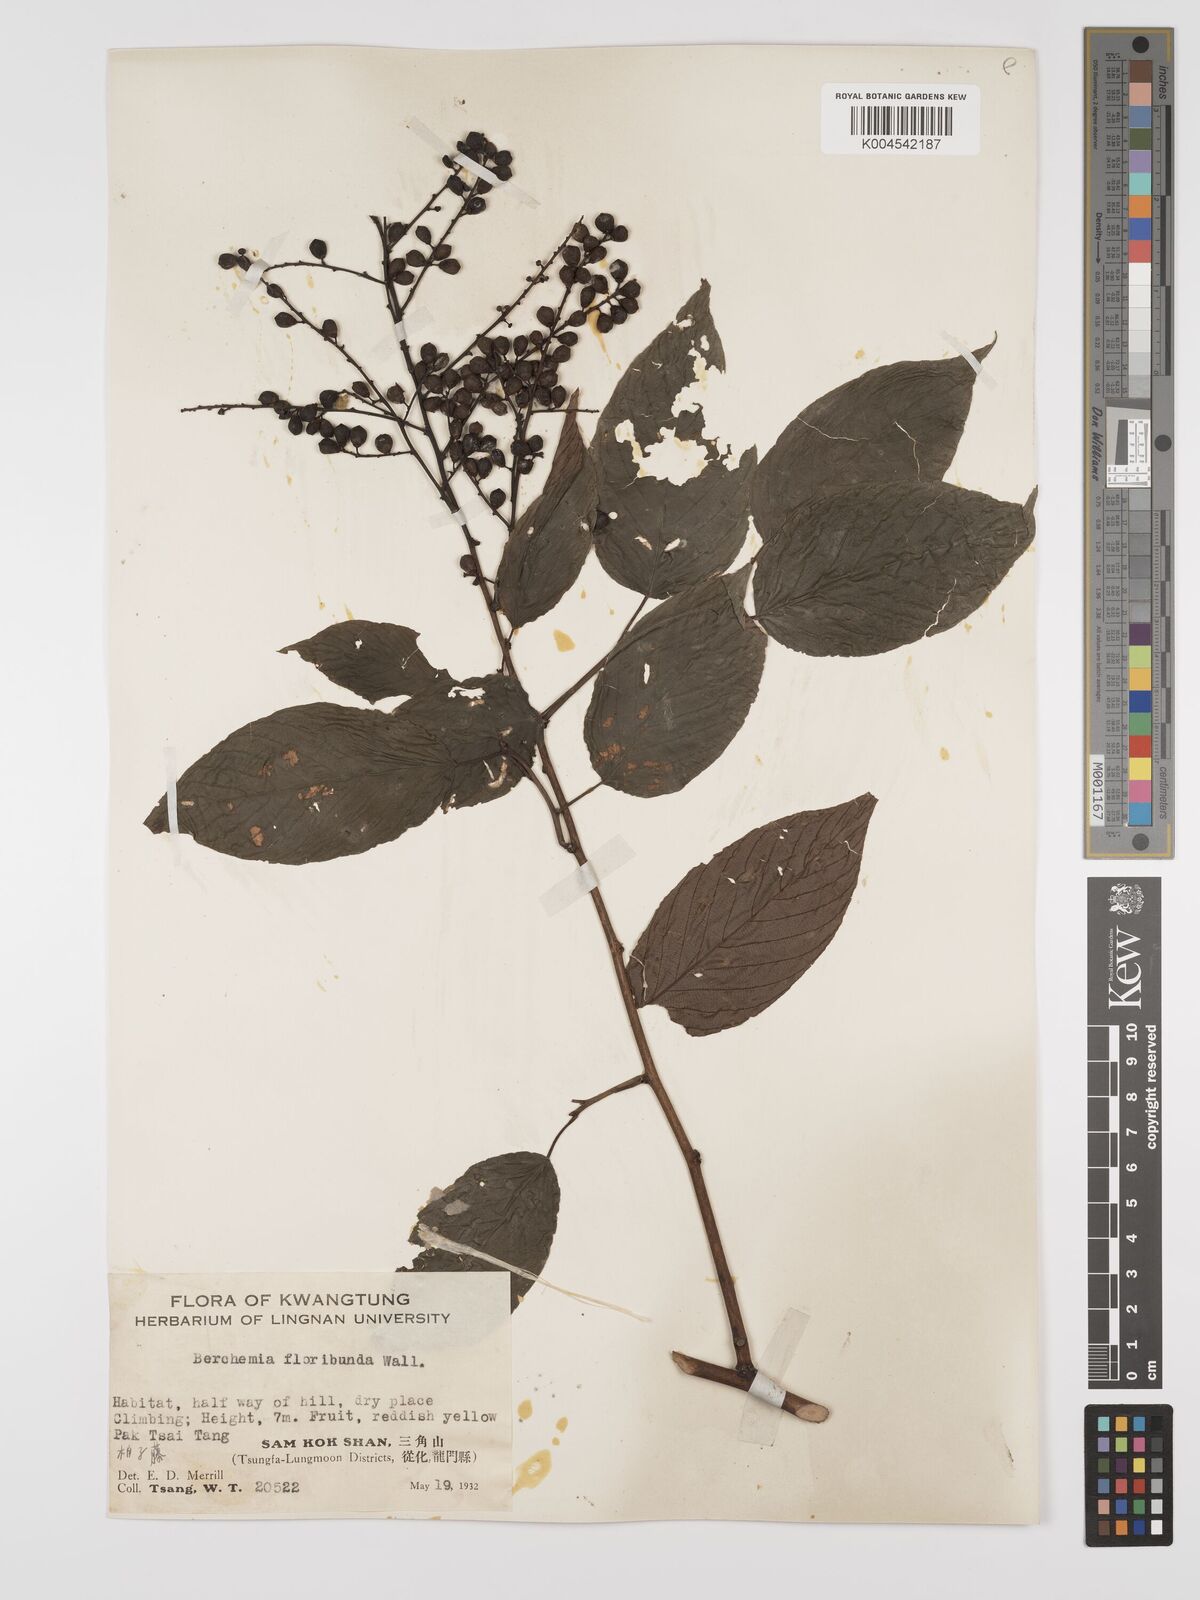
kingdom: Plantae
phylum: Tracheophyta
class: Magnoliopsida
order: Rosales
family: Rhamnaceae
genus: Berchemia
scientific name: Berchemia floribunda
